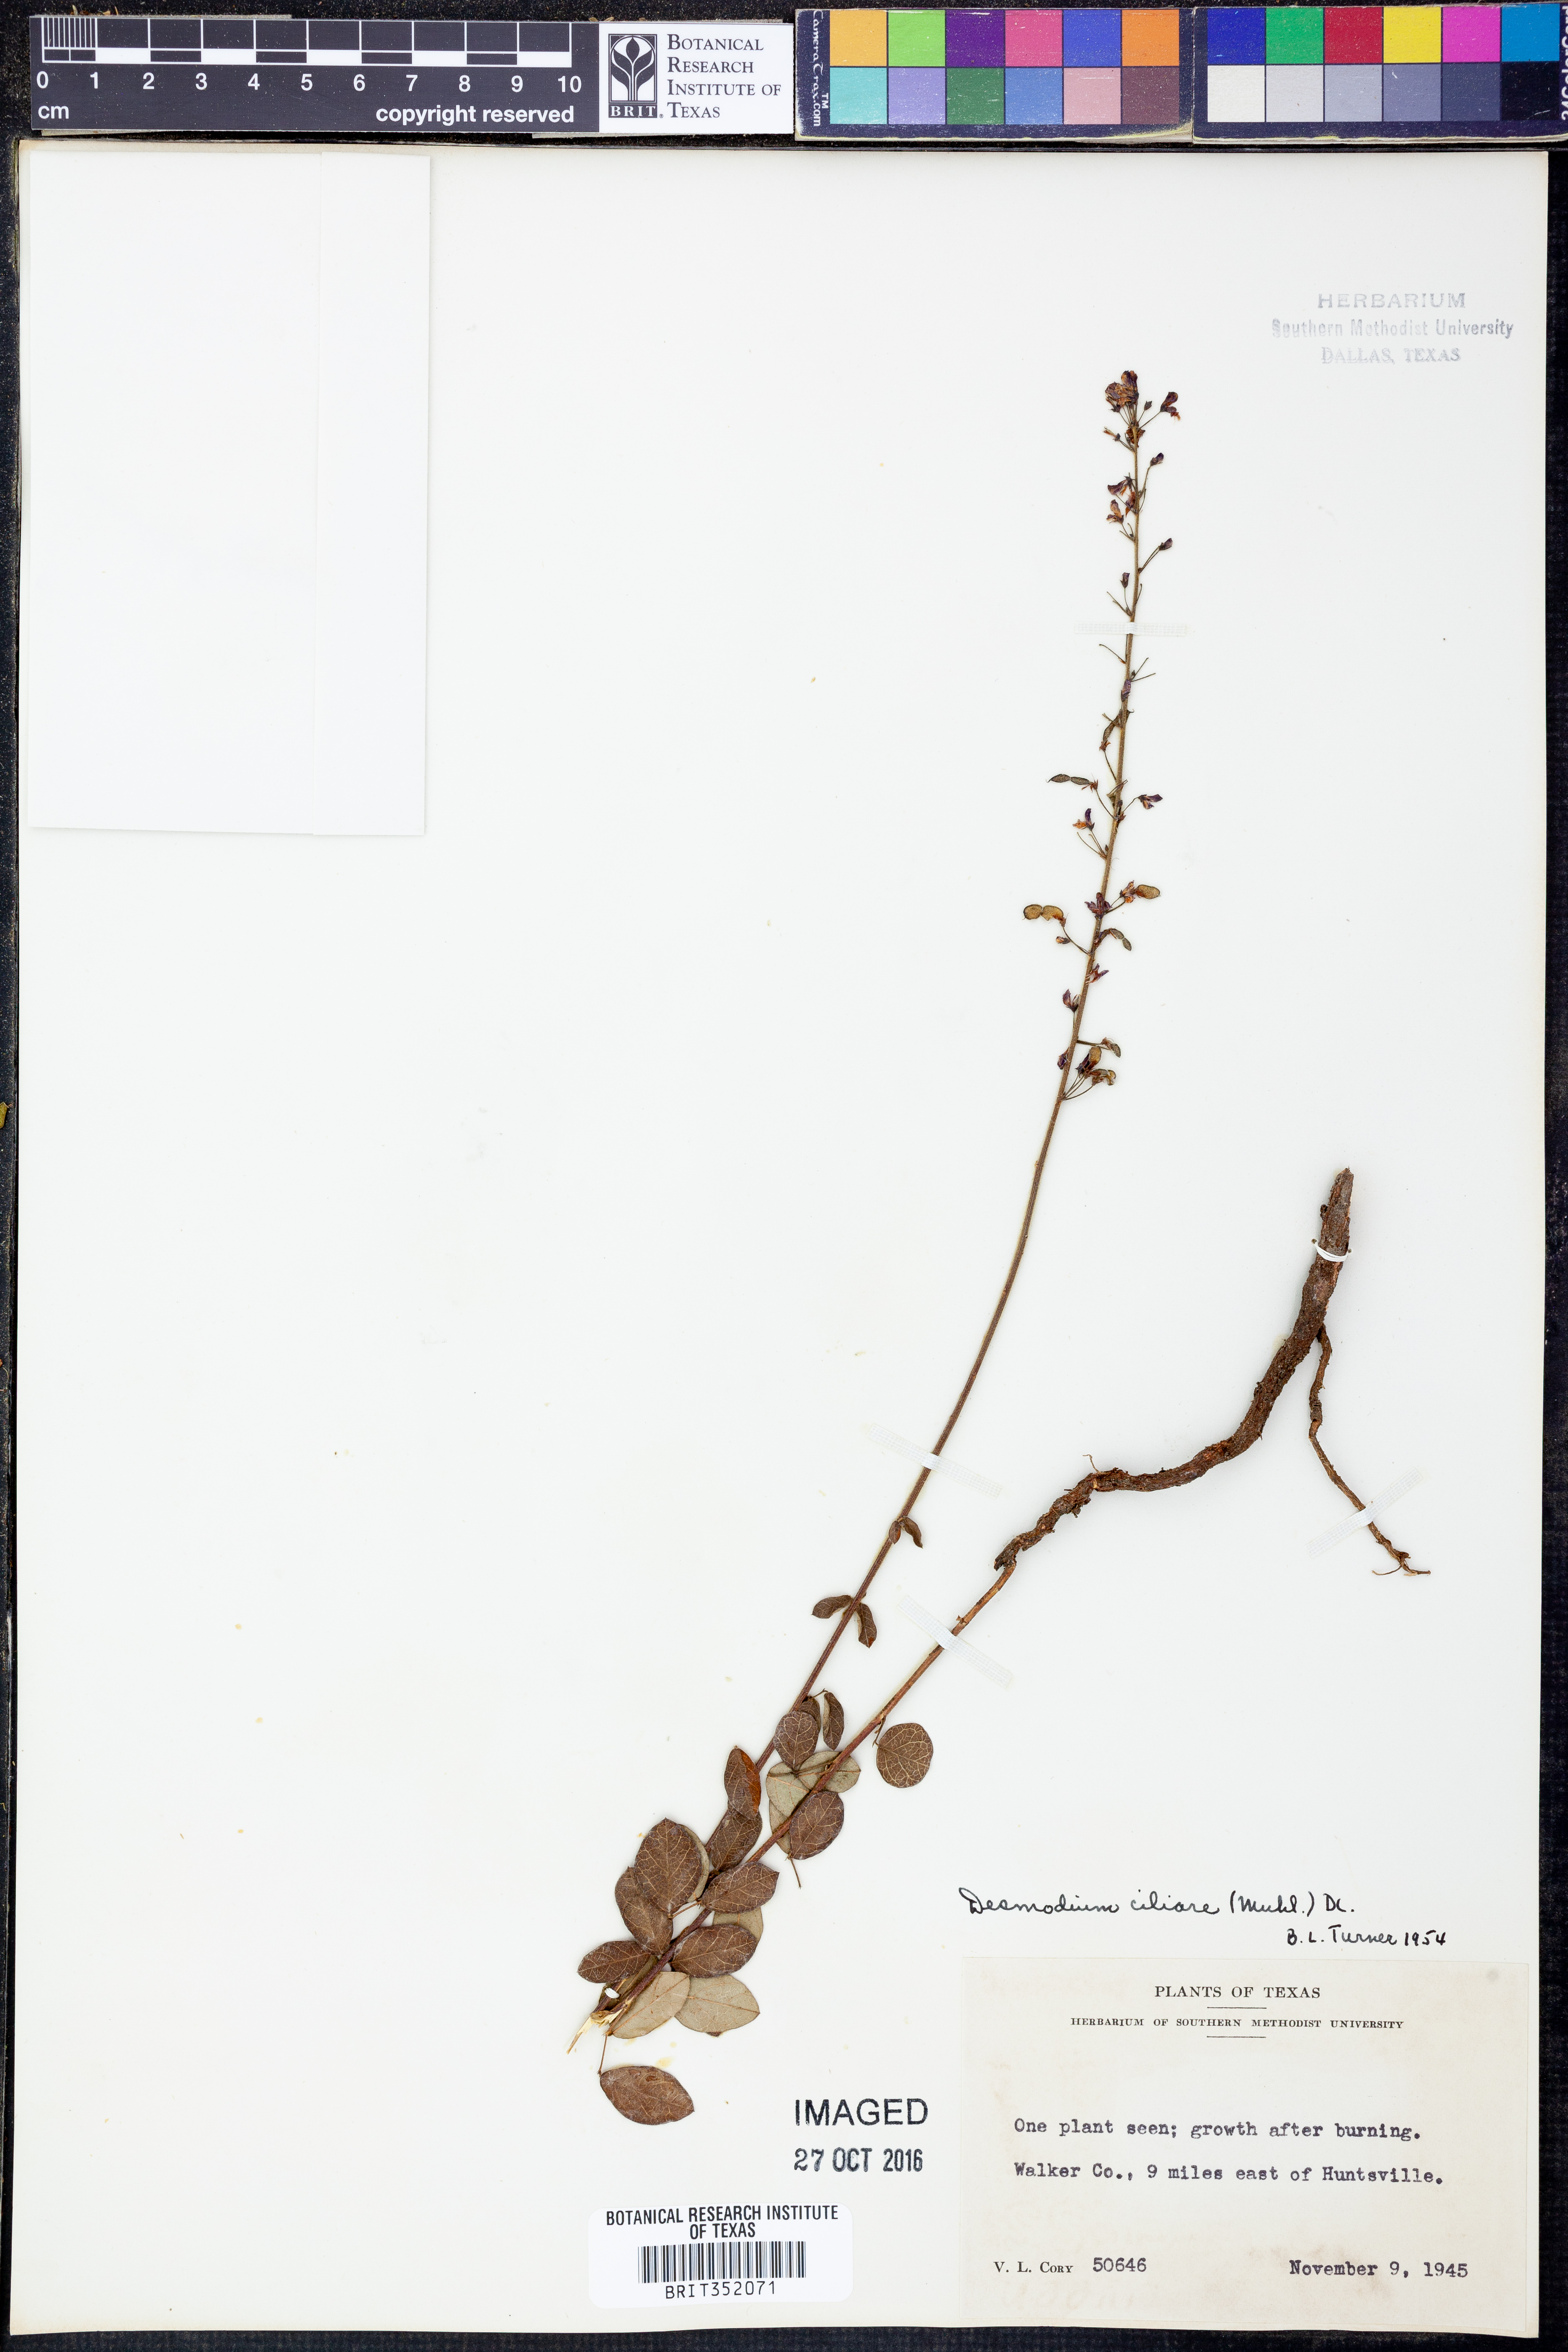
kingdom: Plantae
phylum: Tracheophyta
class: Magnoliopsida
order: Fabales
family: Fabaceae
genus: Desmodium
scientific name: Desmodium ciliare
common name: Hairy small-leaf ticktrefoil
